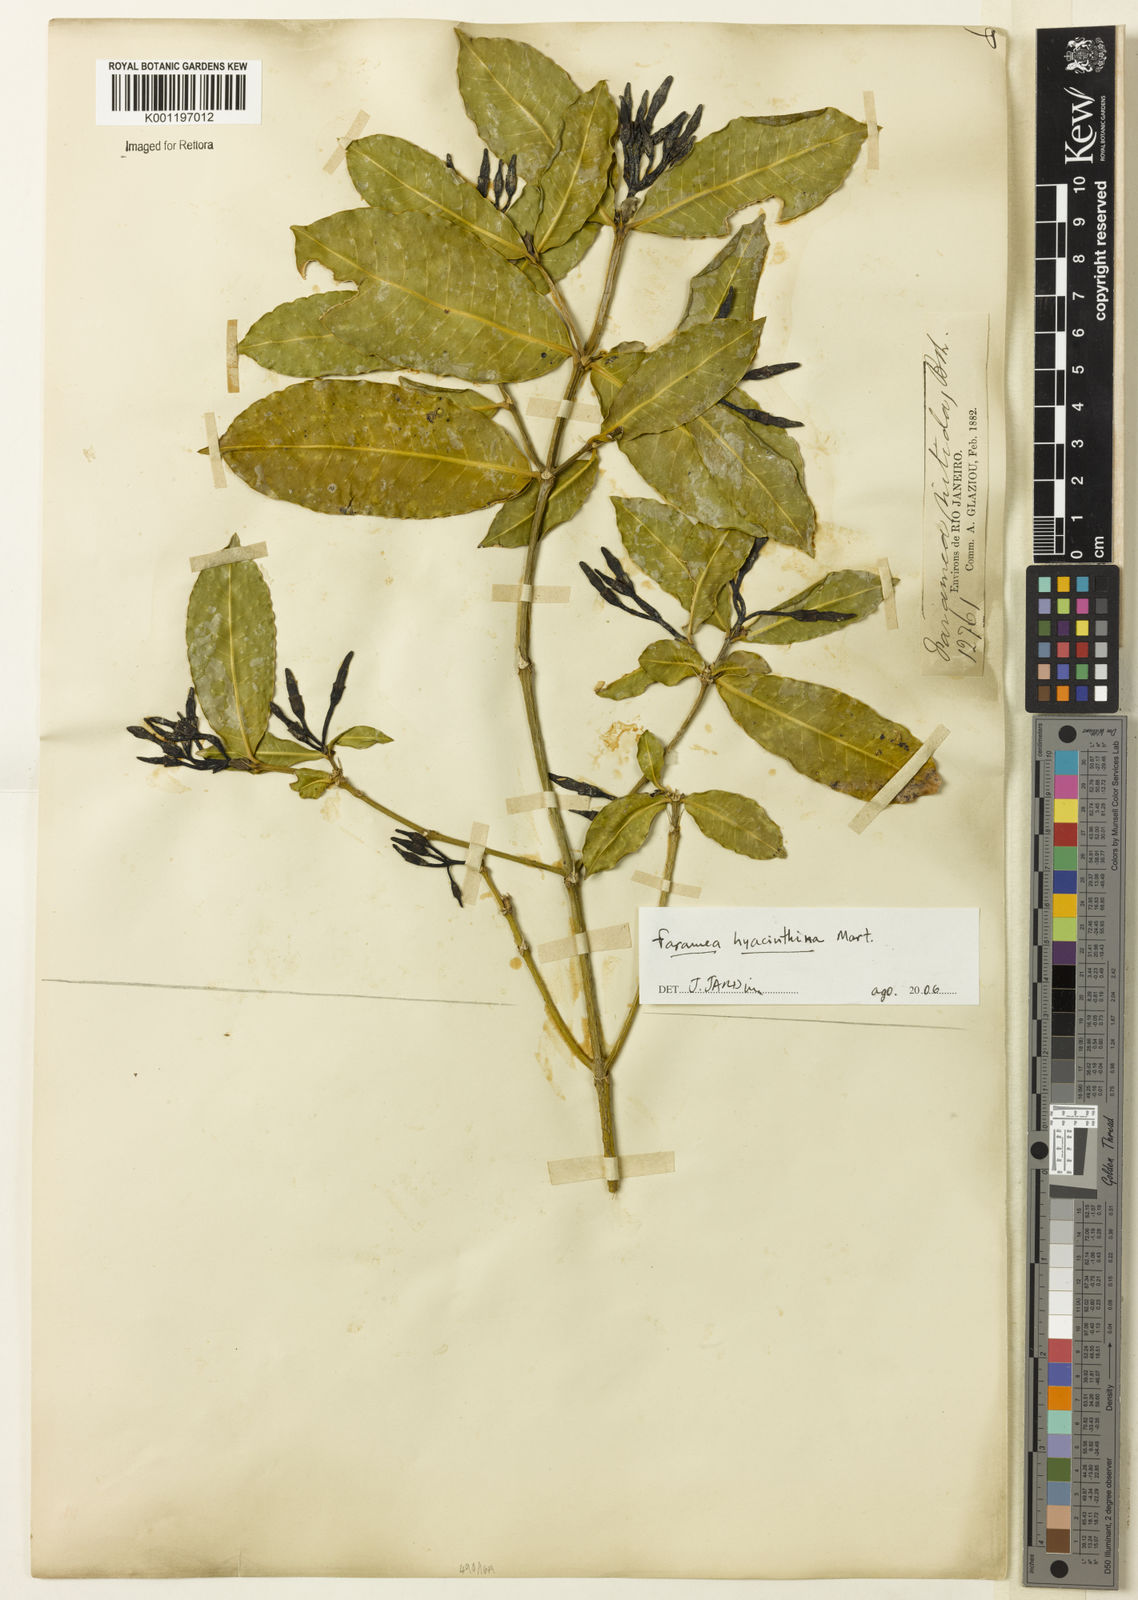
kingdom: Plantae
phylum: Tracheophyta
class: Magnoliopsida
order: Gentianales
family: Rubiaceae
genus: Faramea
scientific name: Faramea hyacinthina
